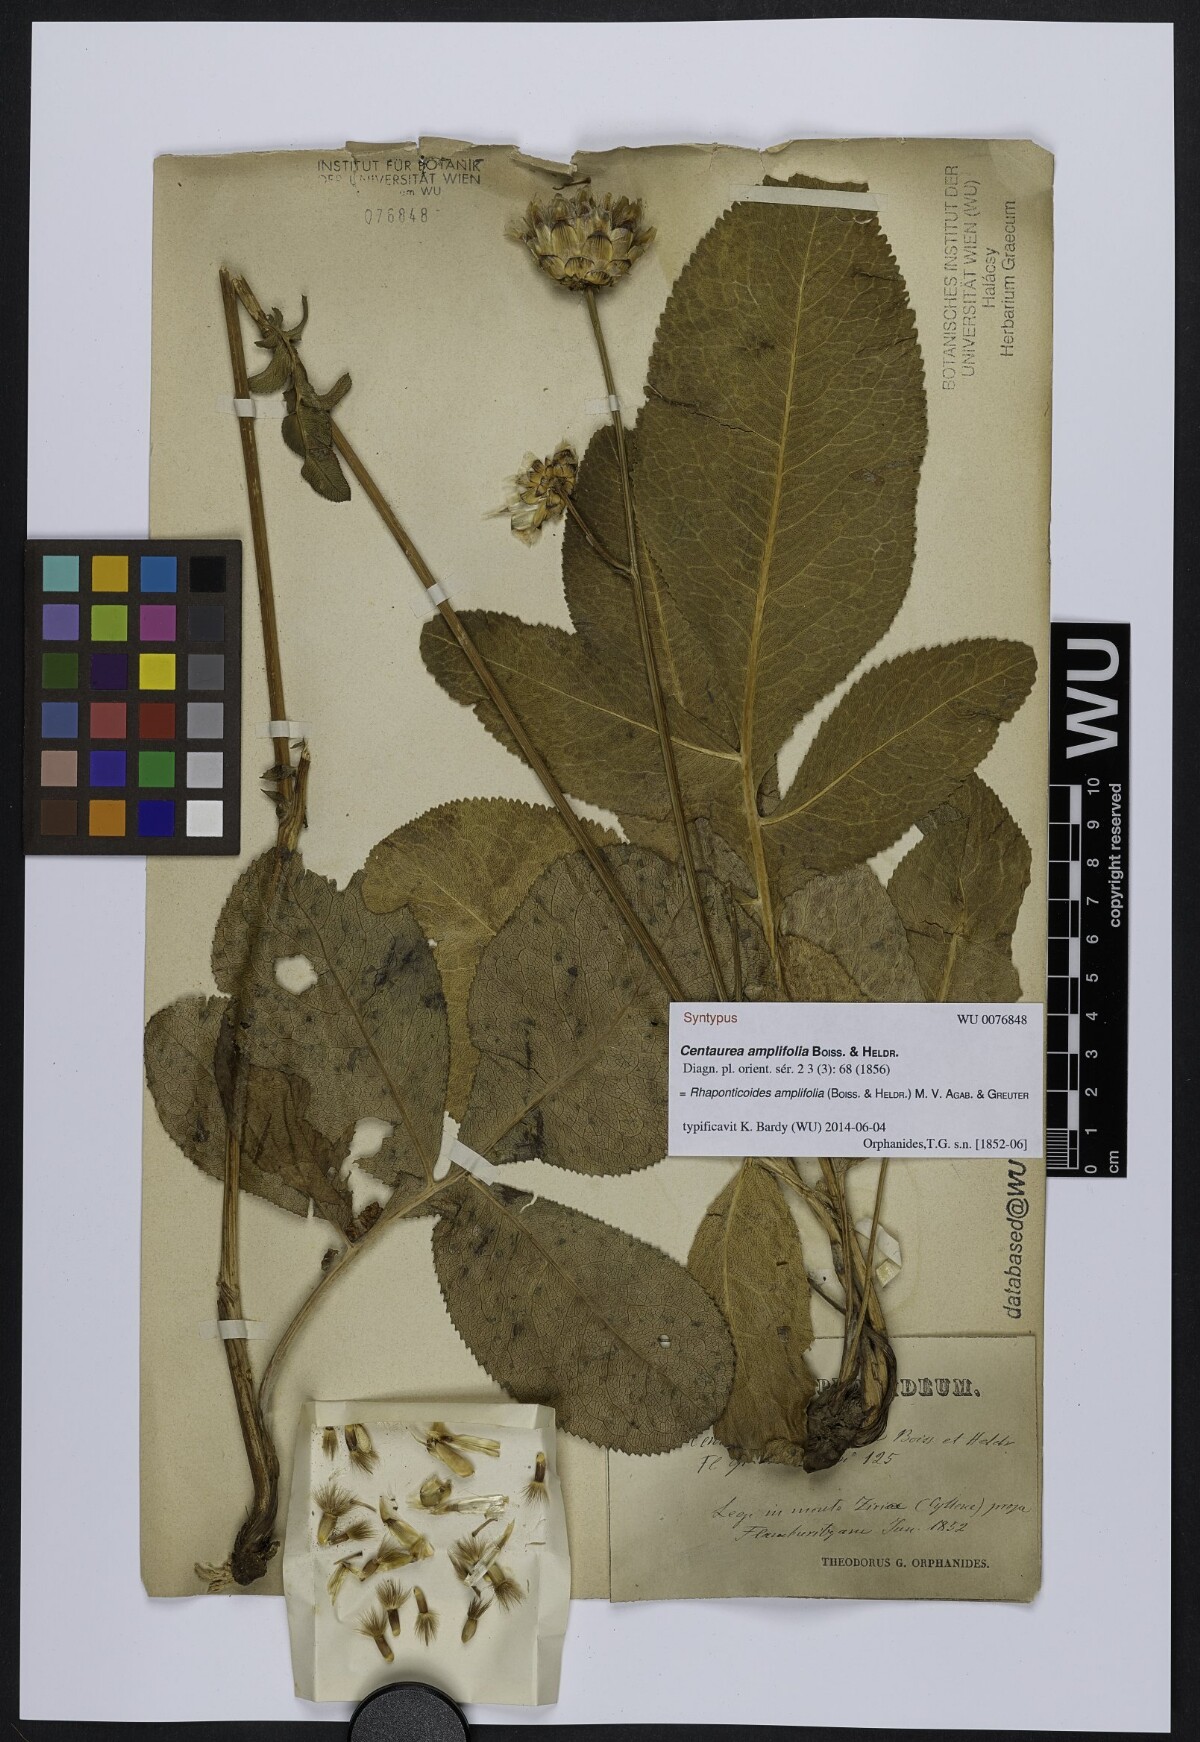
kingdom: Plantae
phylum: Tracheophyta
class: Magnoliopsida
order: Asterales
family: Asteraceae
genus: Rhaponticoides
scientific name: Rhaponticoides amplifolia
